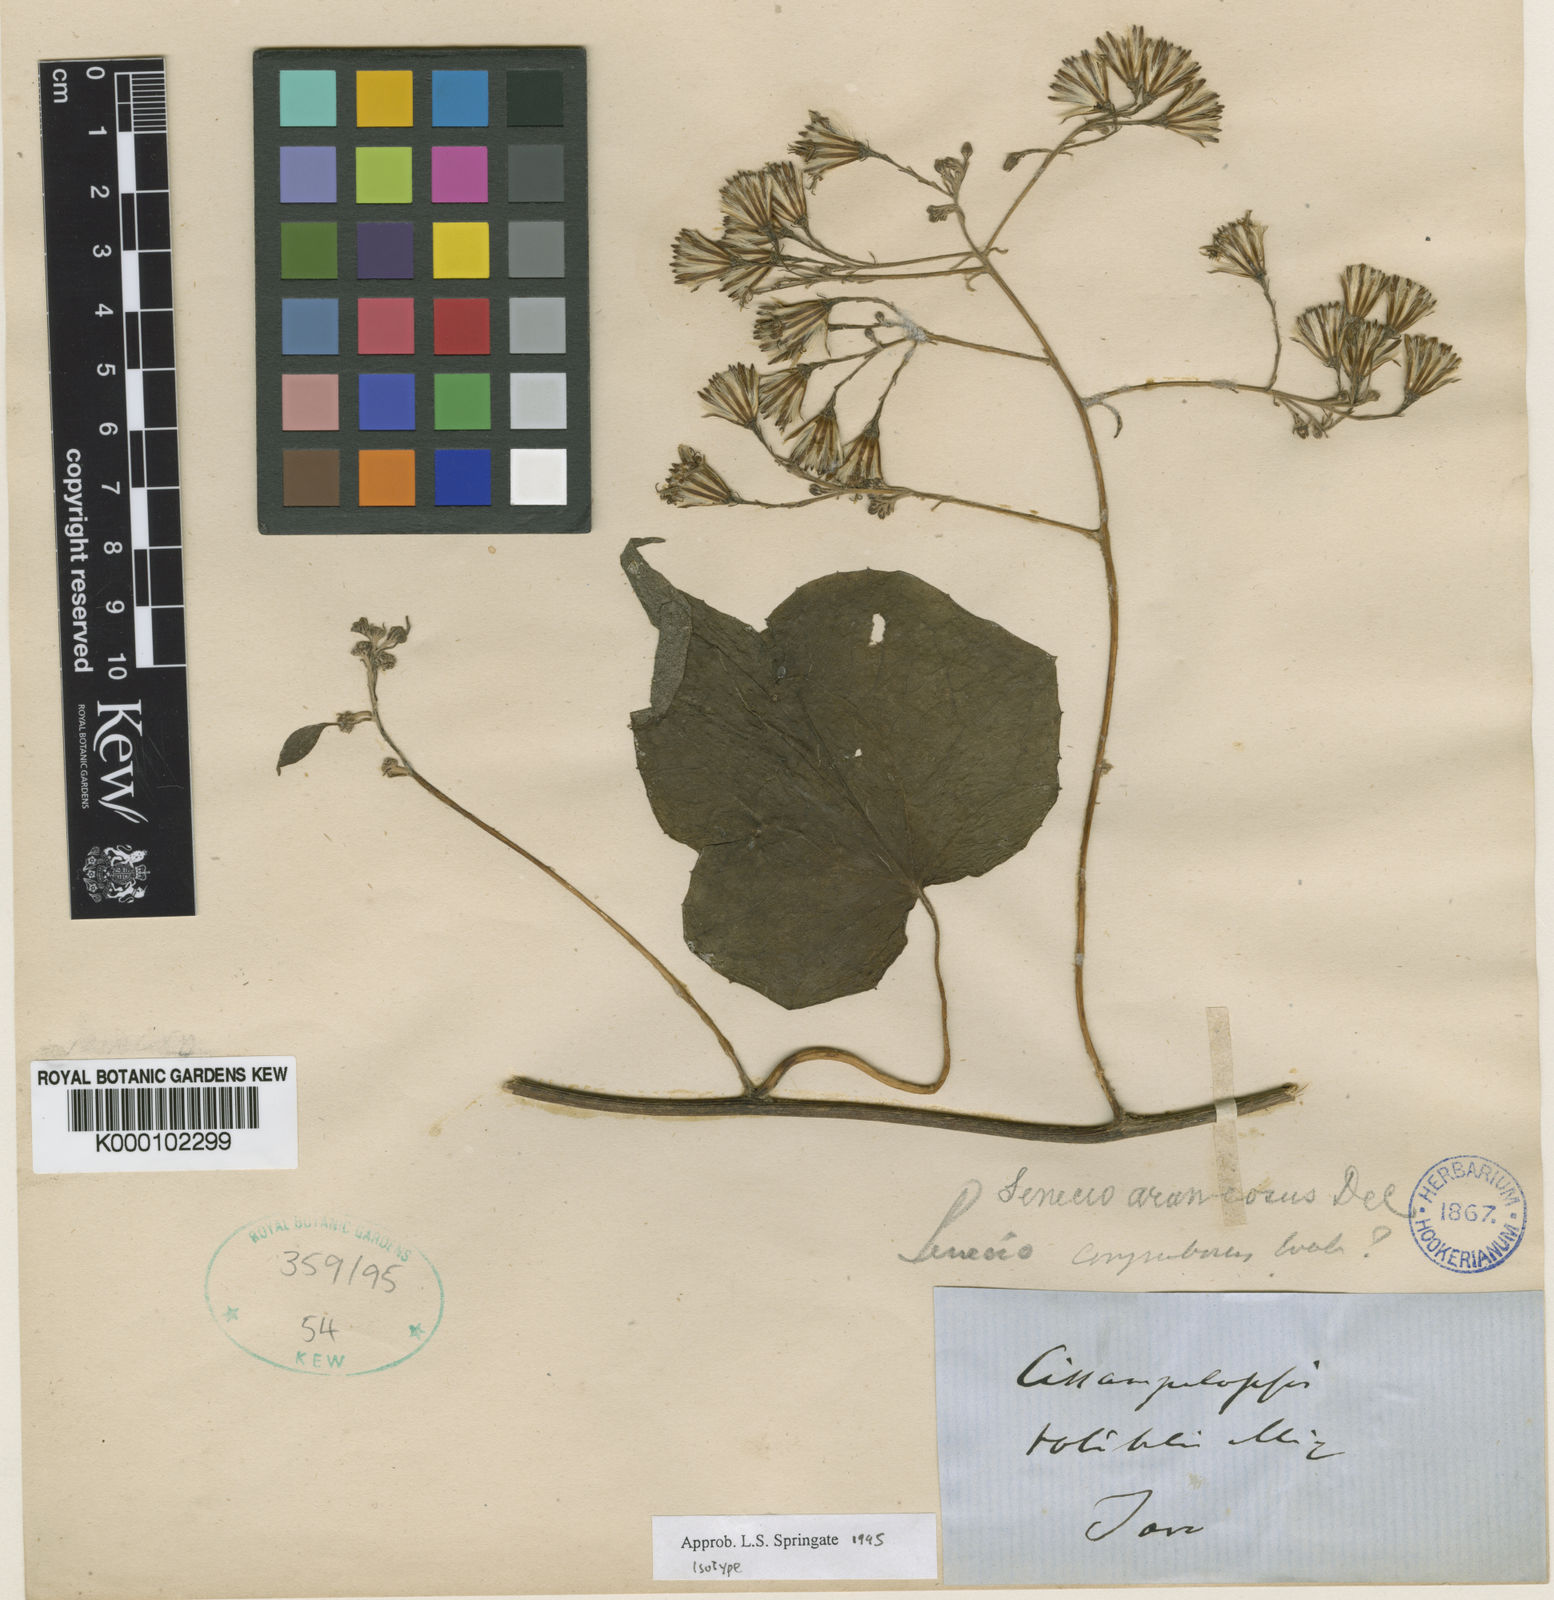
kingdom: Plantae
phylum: Tracheophyta
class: Magnoliopsida
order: Asterales
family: Asteraceae
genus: Cissampelopsis
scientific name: Cissampelopsis volubilis
